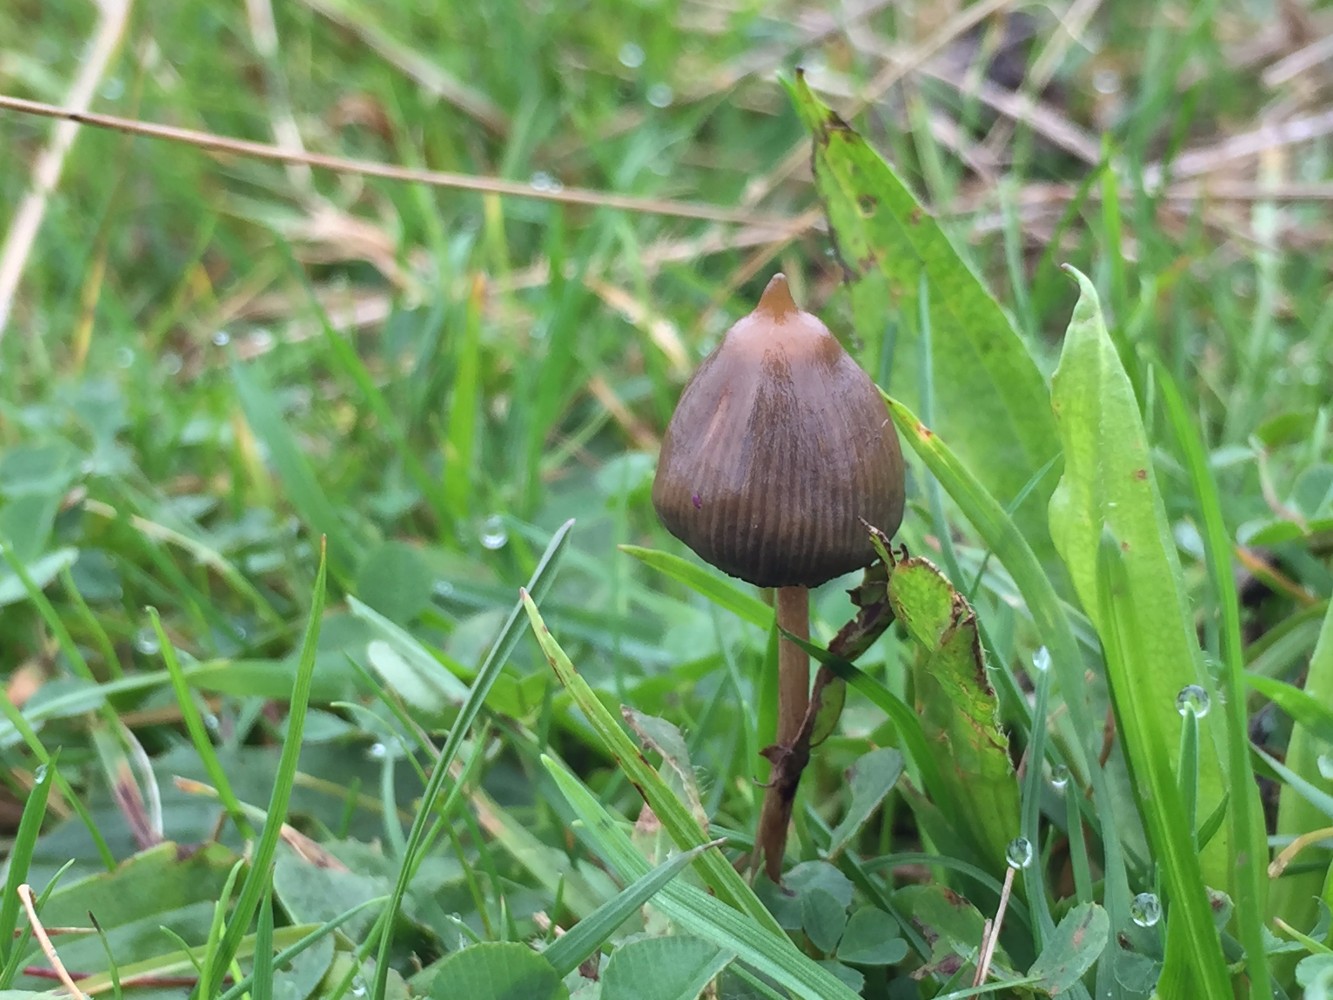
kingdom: Fungi
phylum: Basidiomycota
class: Agaricomycetes
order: Agaricales
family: Hymenogastraceae
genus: Psilocybe
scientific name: Psilocybe semilanceata
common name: spids nøgenhat
